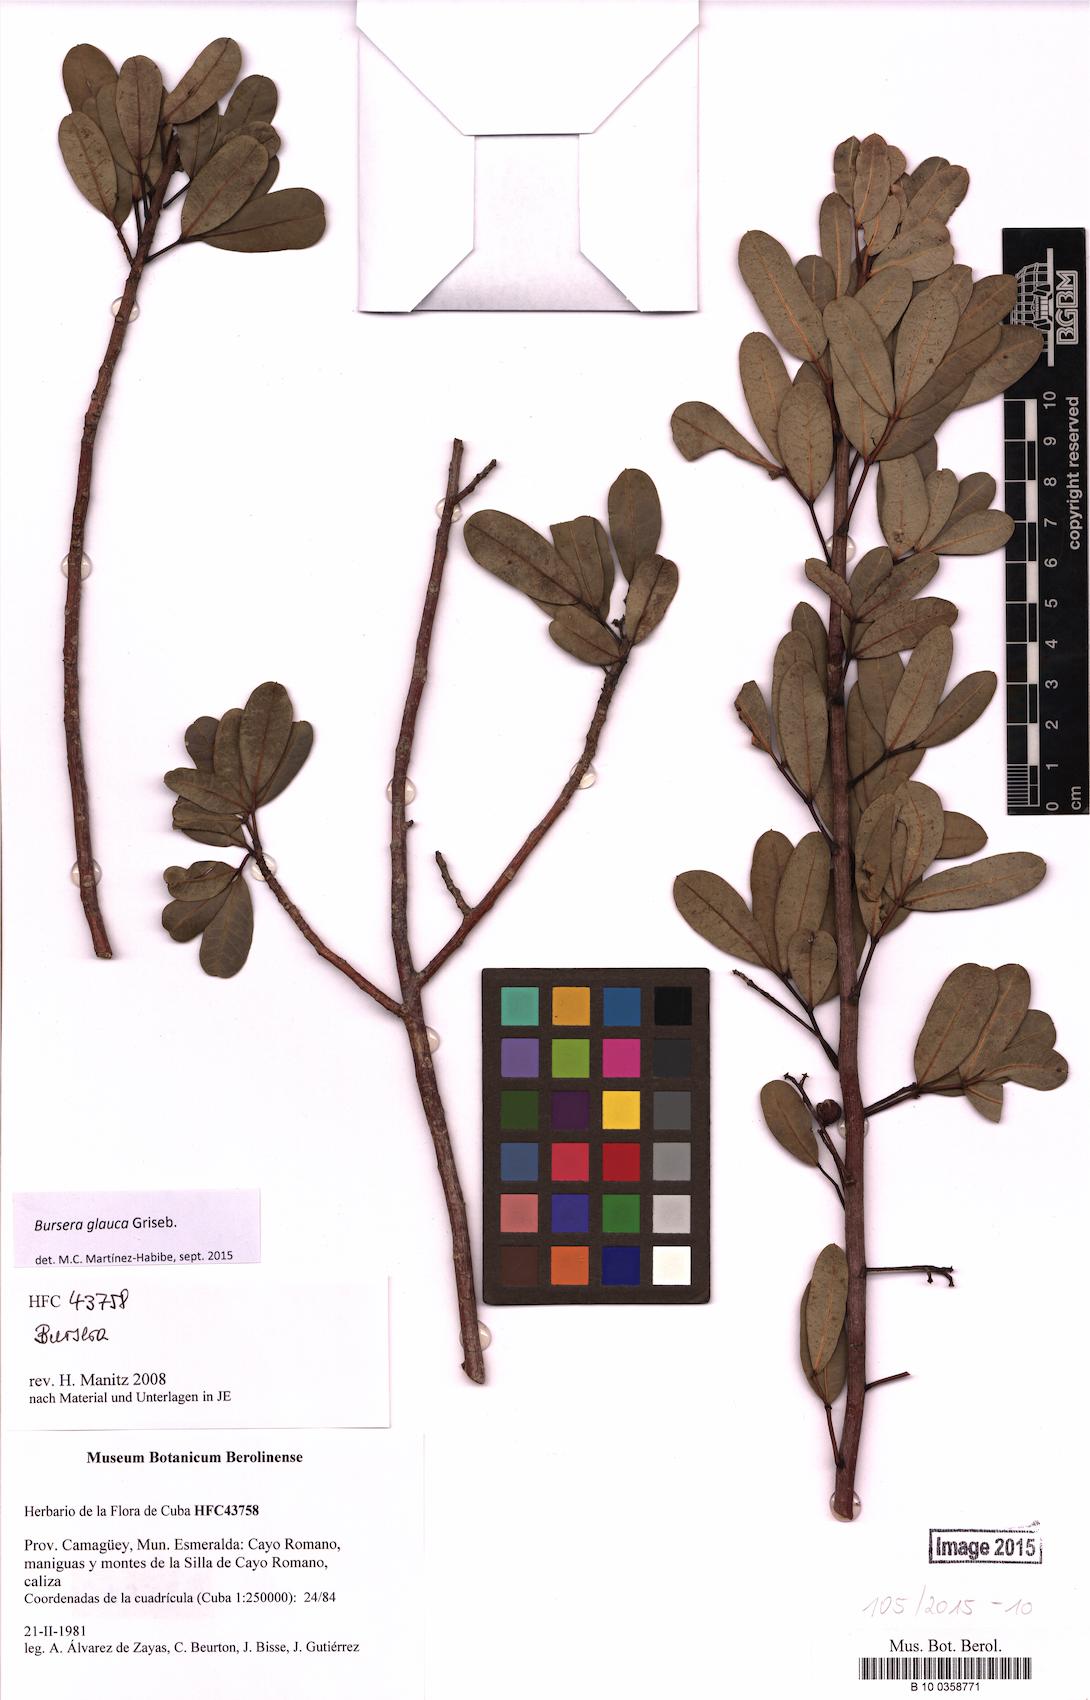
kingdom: Plantae
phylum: Tracheophyta
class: Magnoliopsida
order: Sapindales
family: Burseraceae
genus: Bursera
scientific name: Bursera glauca
